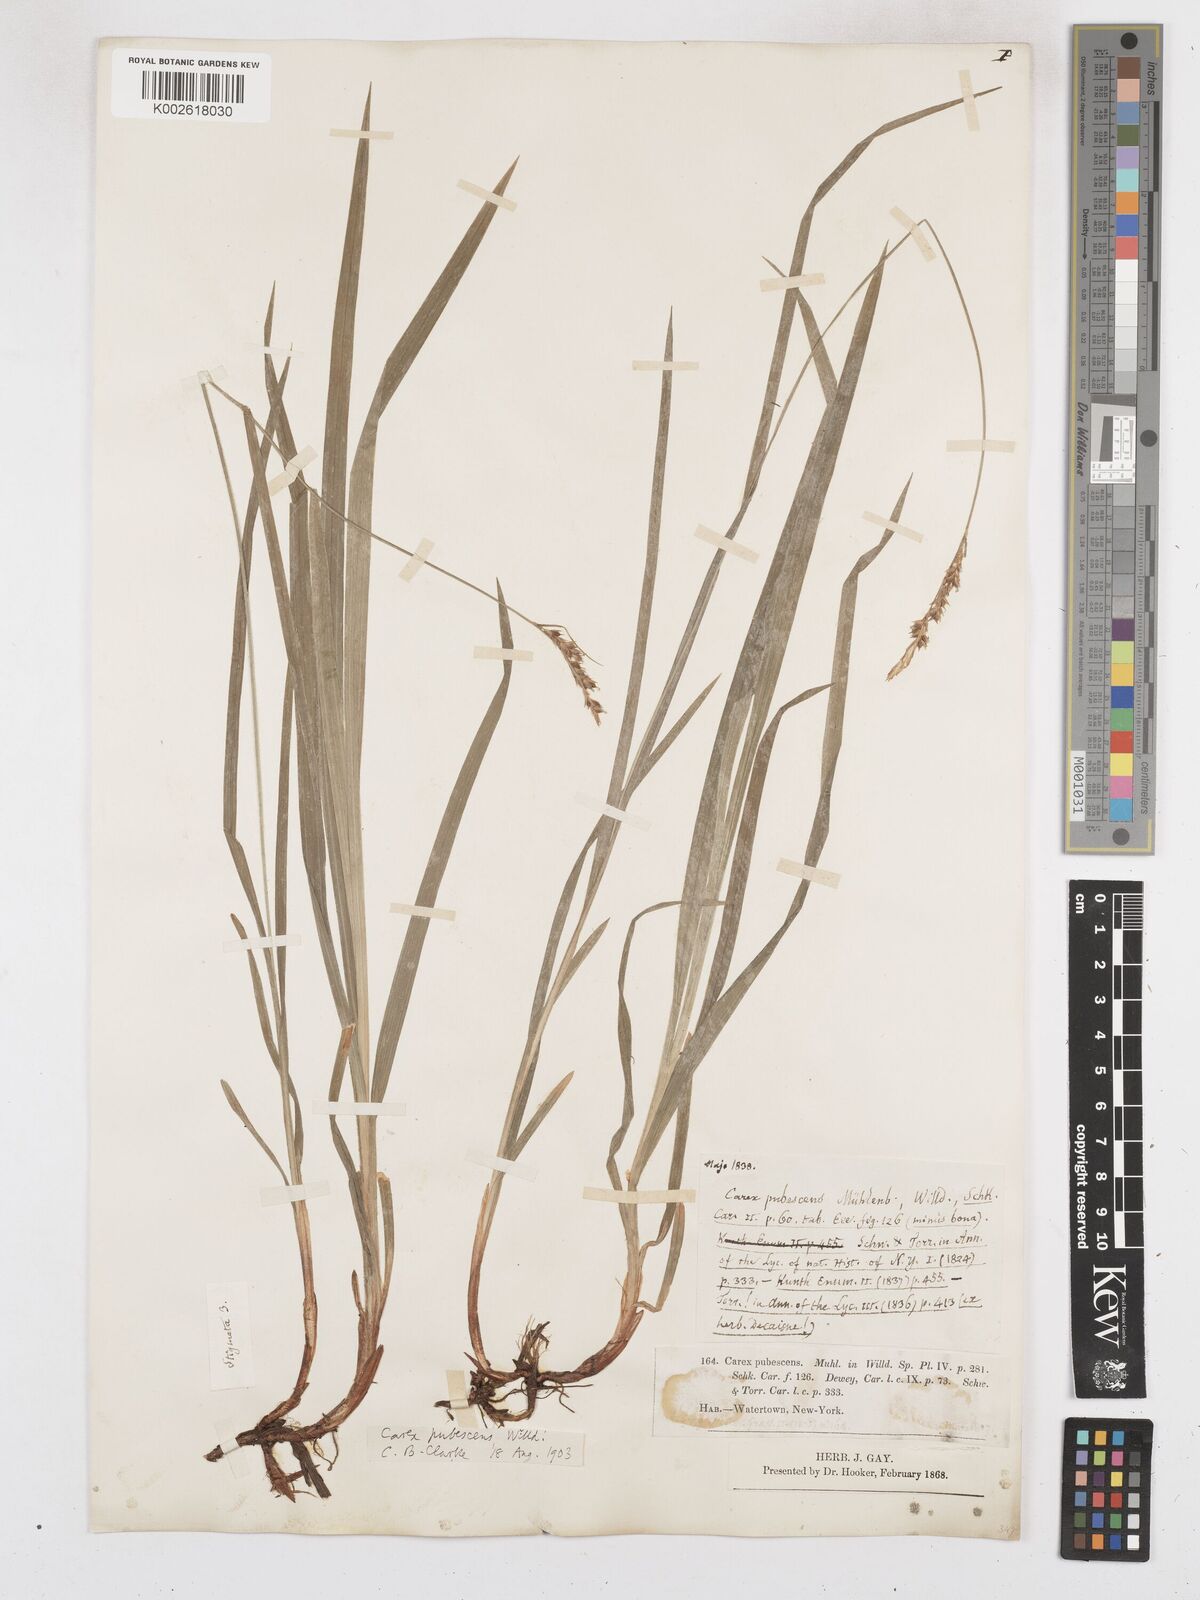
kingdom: Plantae
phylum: Tracheophyta
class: Liliopsida
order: Poales
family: Cyperaceae
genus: Carex
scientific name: Carex hirtifolia
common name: Hairy sedge
